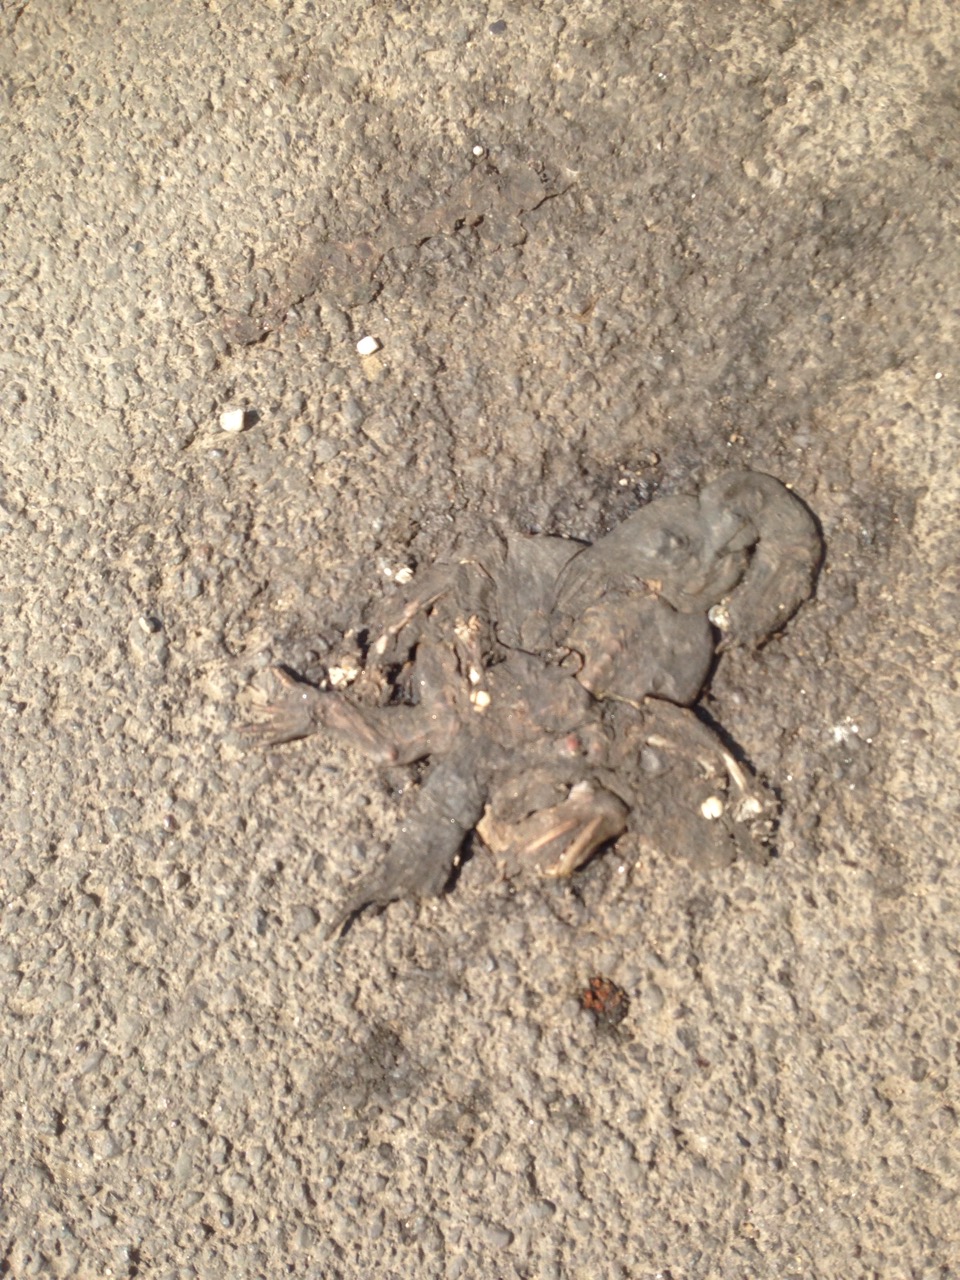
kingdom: Animalia
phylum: Chordata
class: Amphibia
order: Anura
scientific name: Anura
